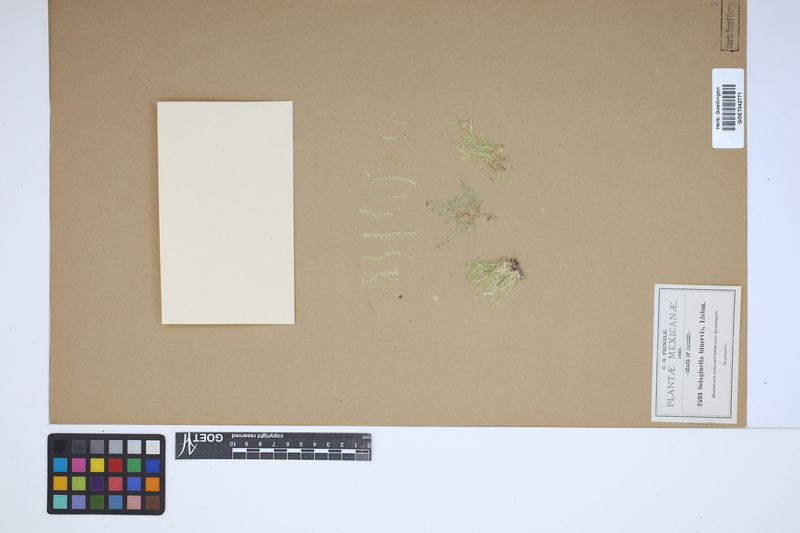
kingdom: Plantae
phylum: Tracheophyta
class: Lycopodiopsida
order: Selaginellales
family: Selaginellaceae
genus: Selaginella
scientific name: Selaginella porphyrospora
